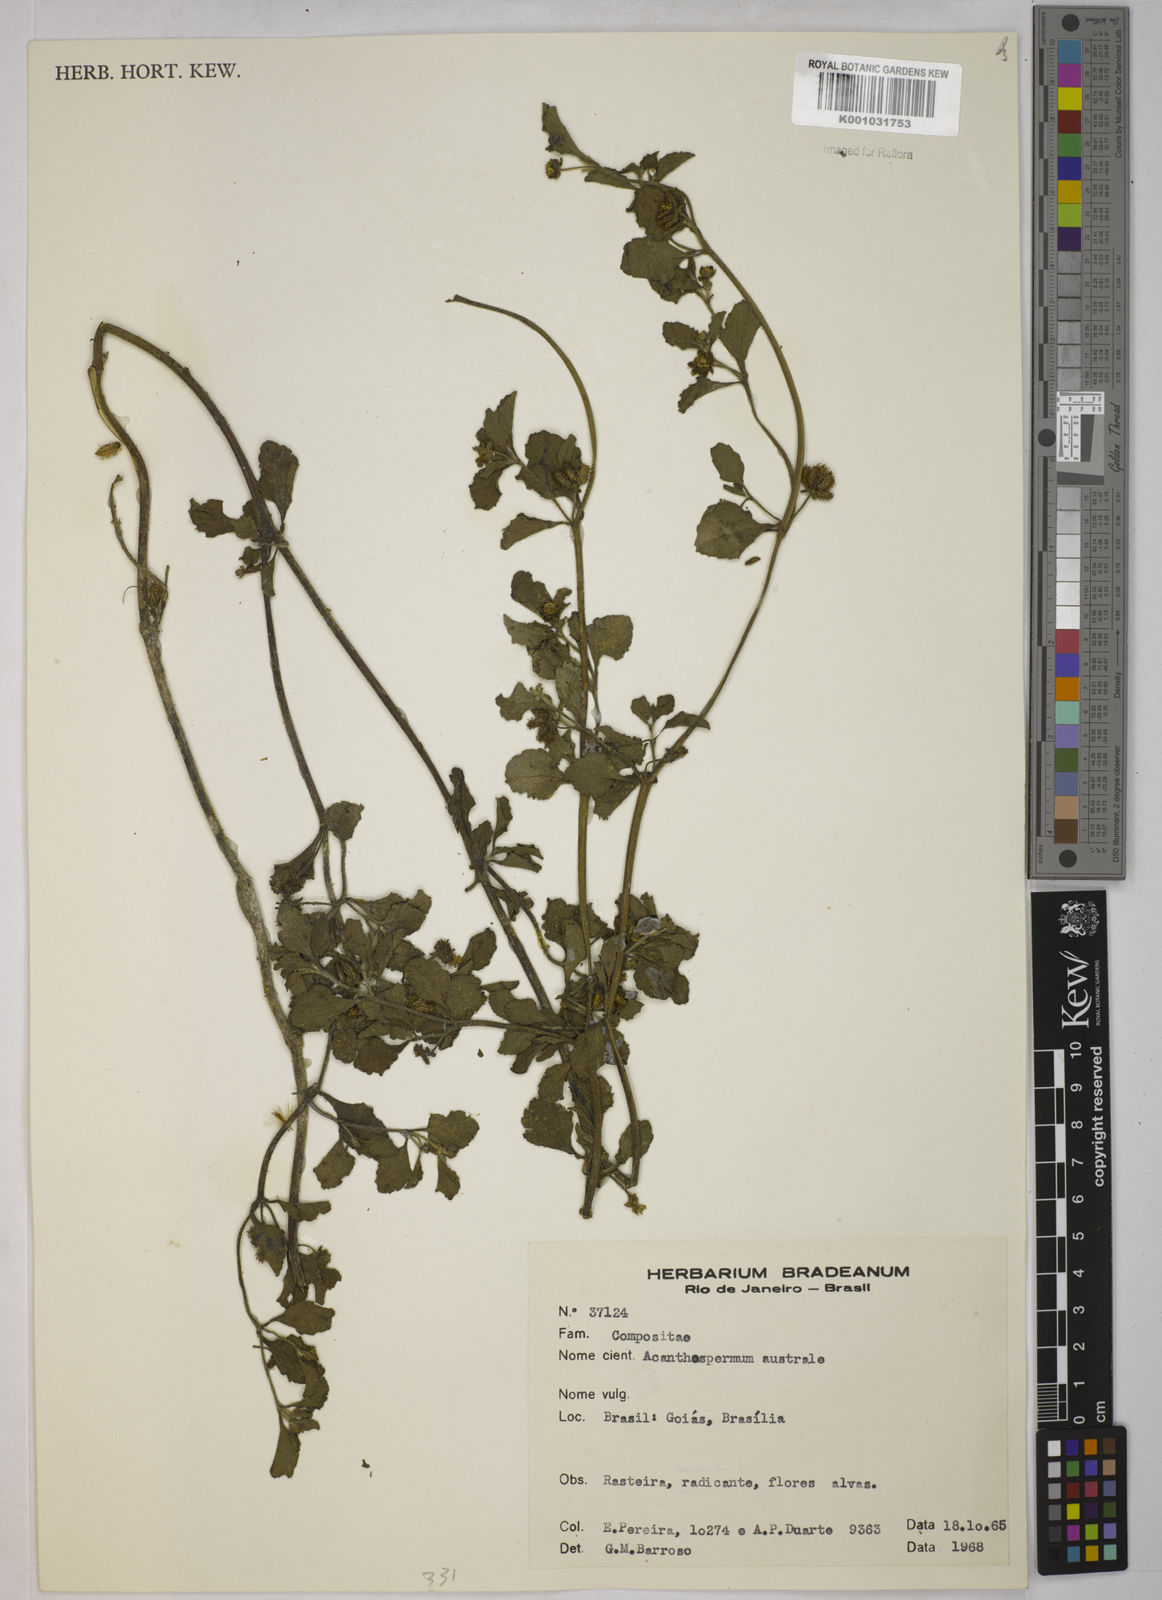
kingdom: Plantae
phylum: Tracheophyta
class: Magnoliopsida
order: Asterales
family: Asteraceae
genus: Acanthospermum
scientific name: Acanthospermum australe
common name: Paraguayan starbur
